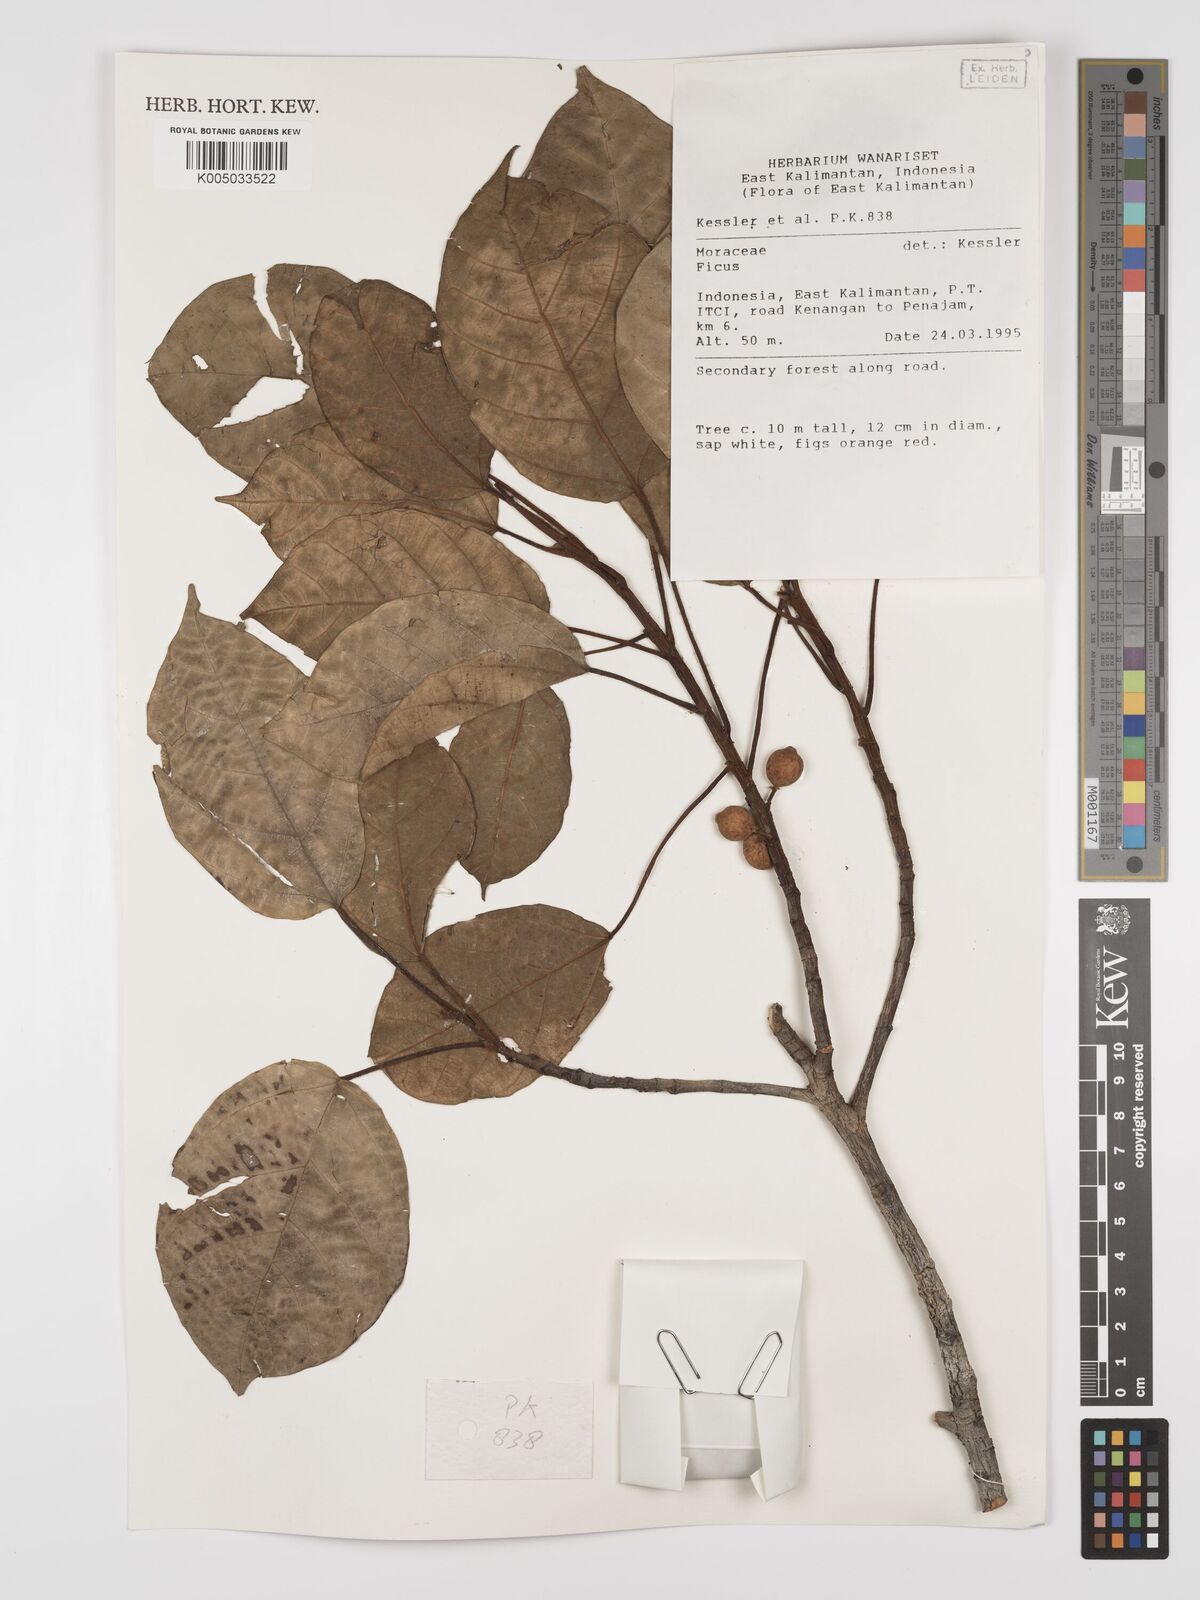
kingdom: Plantae
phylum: Tracheophyta
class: Magnoliopsida
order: Rosales
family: Moraceae
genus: Ficus
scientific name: Ficus
